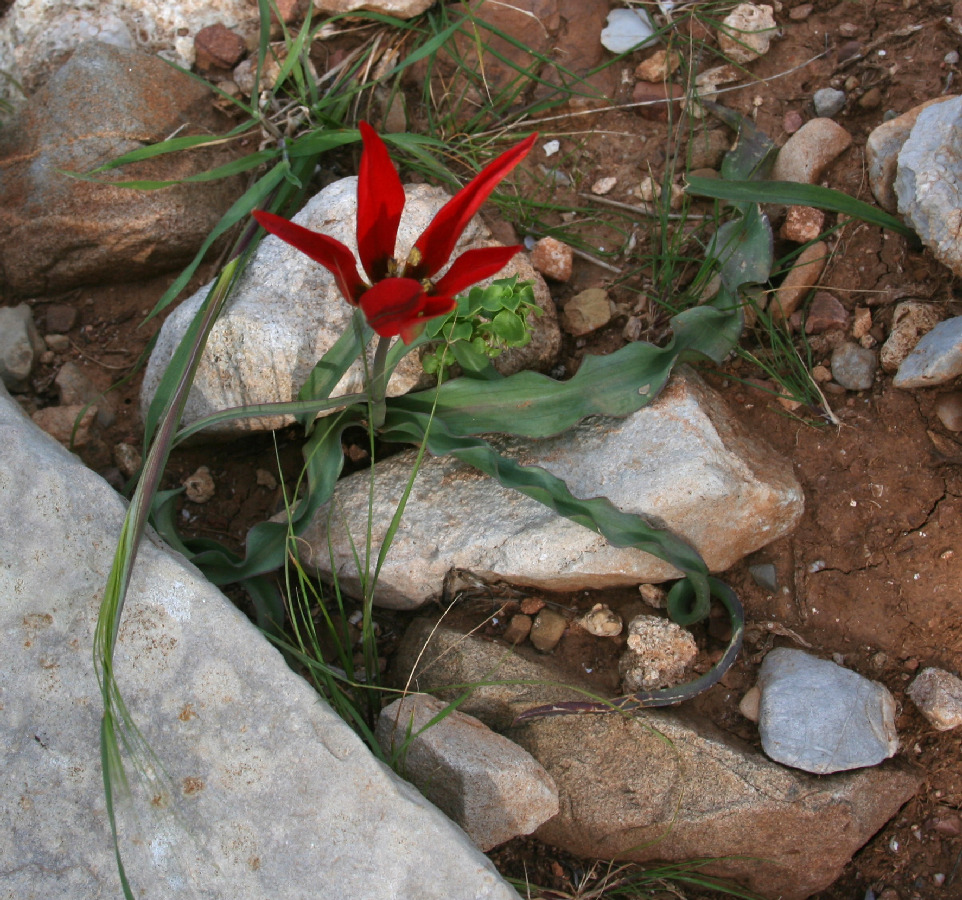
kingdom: Plantae
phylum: Tracheophyta
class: Liliopsida
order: Liliales
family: Liliaceae
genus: Tulipa
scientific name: Tulipa orphanidea
